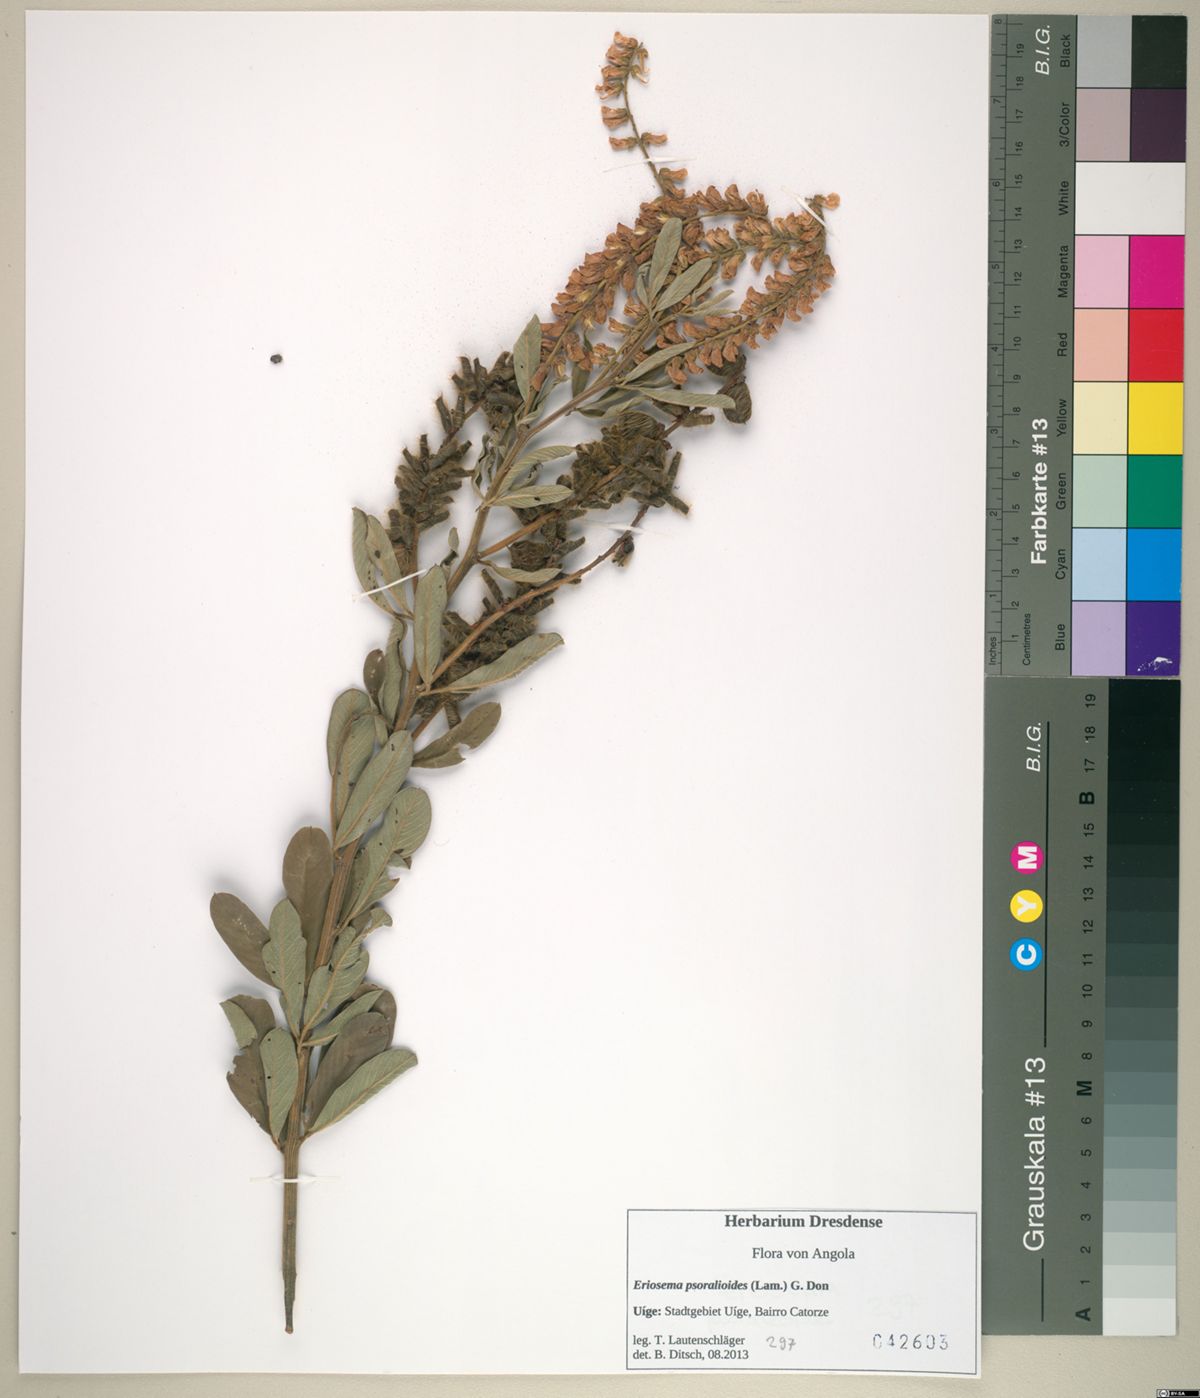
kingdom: Plantae
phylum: Tracheophyta
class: Magnoliopsida
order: Fabales
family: Fabaceae
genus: Eriosema
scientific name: Eriosema psoraleoides
